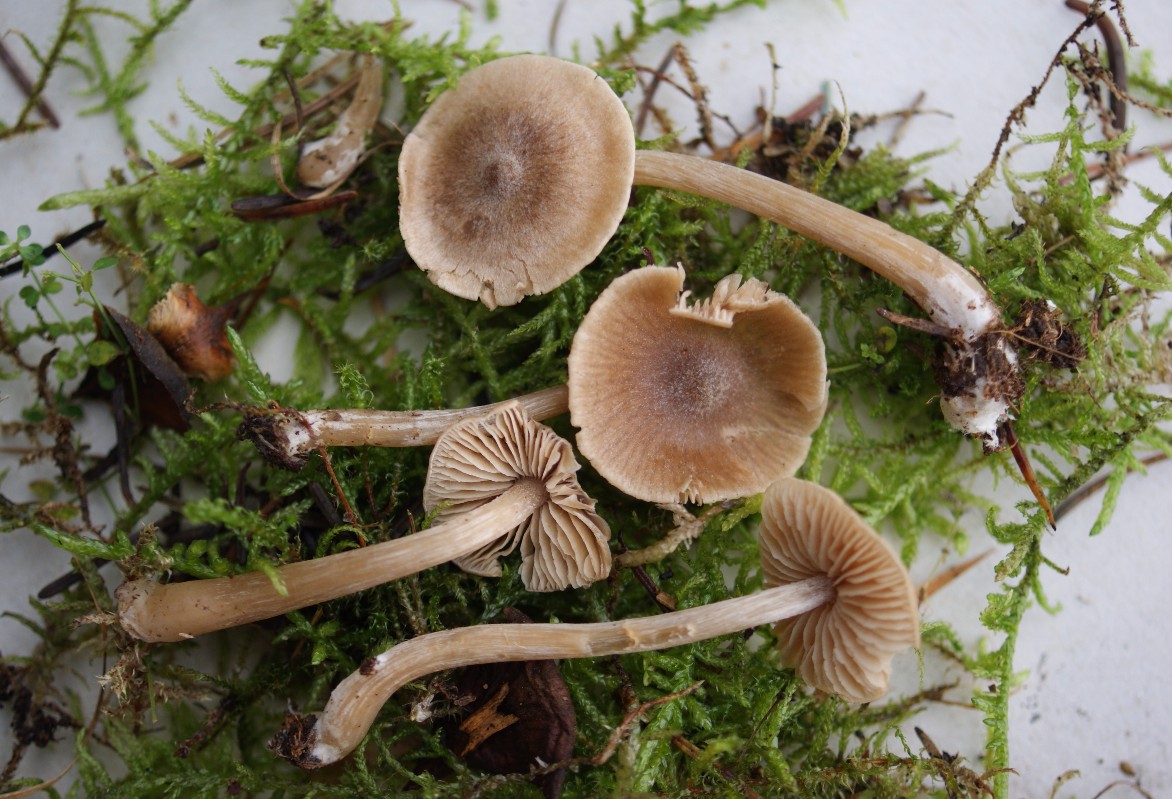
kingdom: Fungi
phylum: Basidiomycota
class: Agaricomycetes
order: Agaricales
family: Entolomataceae
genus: Entoloma
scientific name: Entoloma cetratum
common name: voks-rødblad
